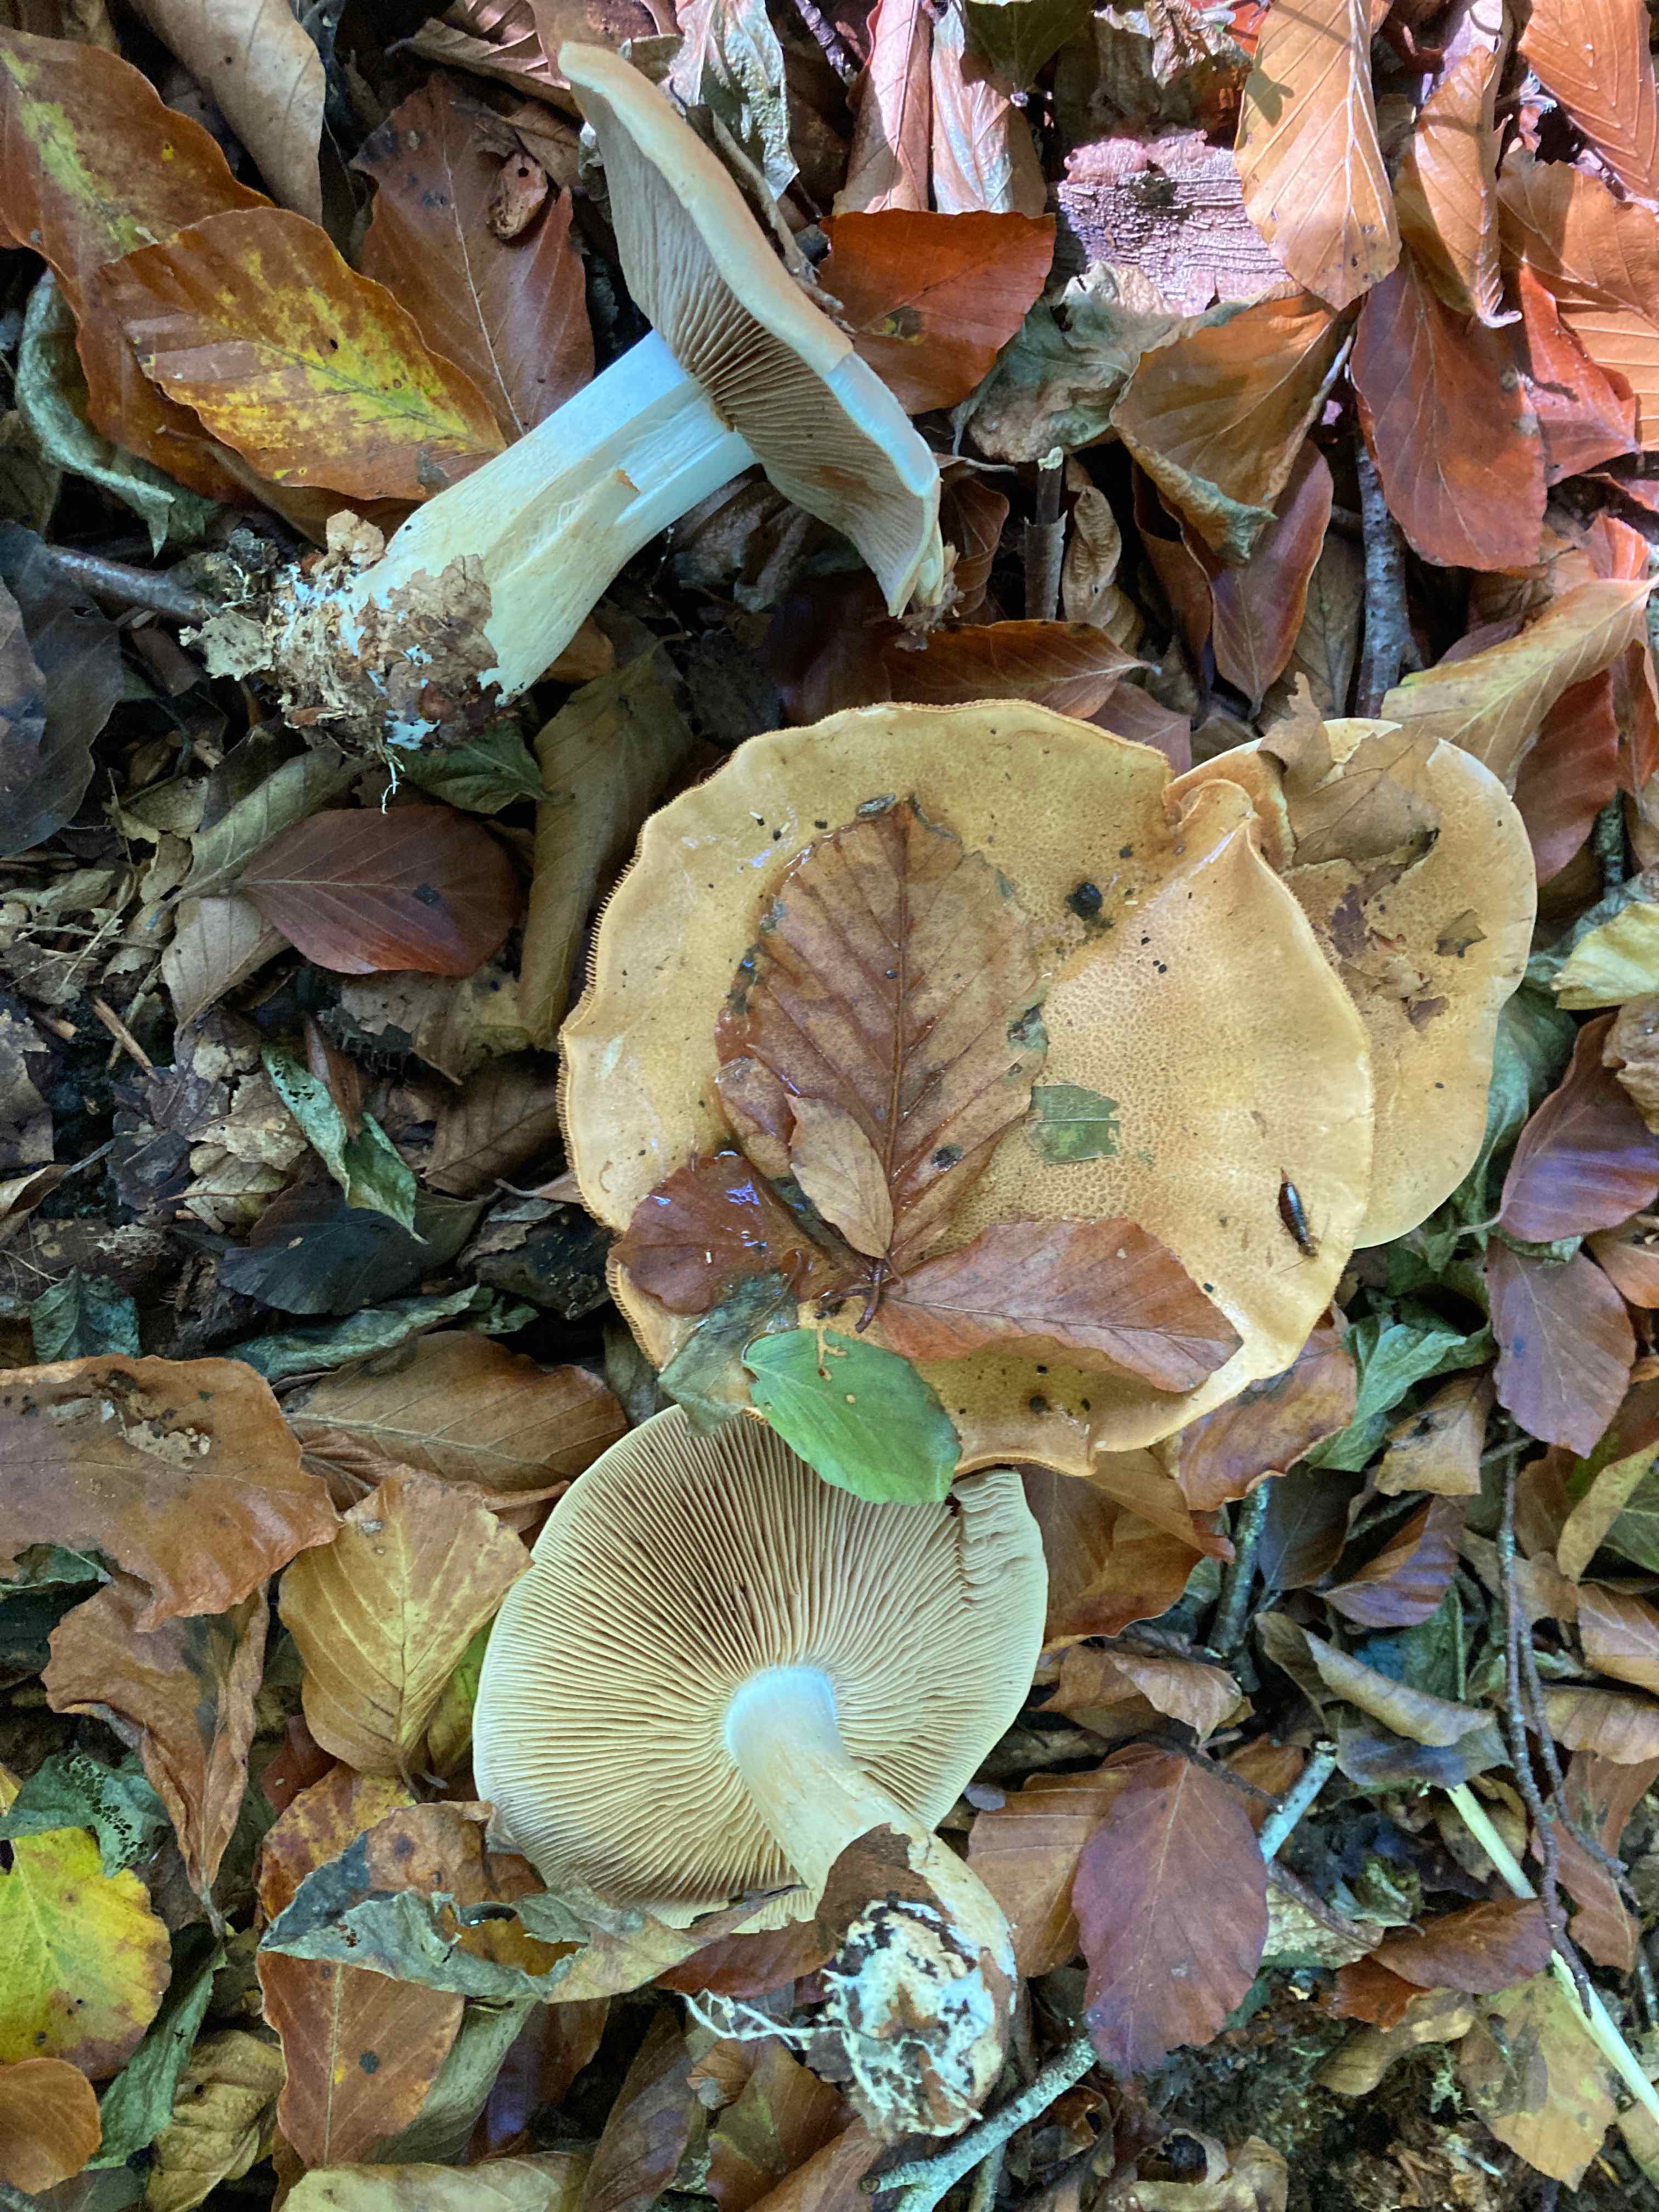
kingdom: Fungi
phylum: Basidiomycota
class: Agaricomycetes
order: Agaricales
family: Cortinariaceae
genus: Phlegmacium
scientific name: Phlegmacium cliduchus
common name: majs-slørhat
